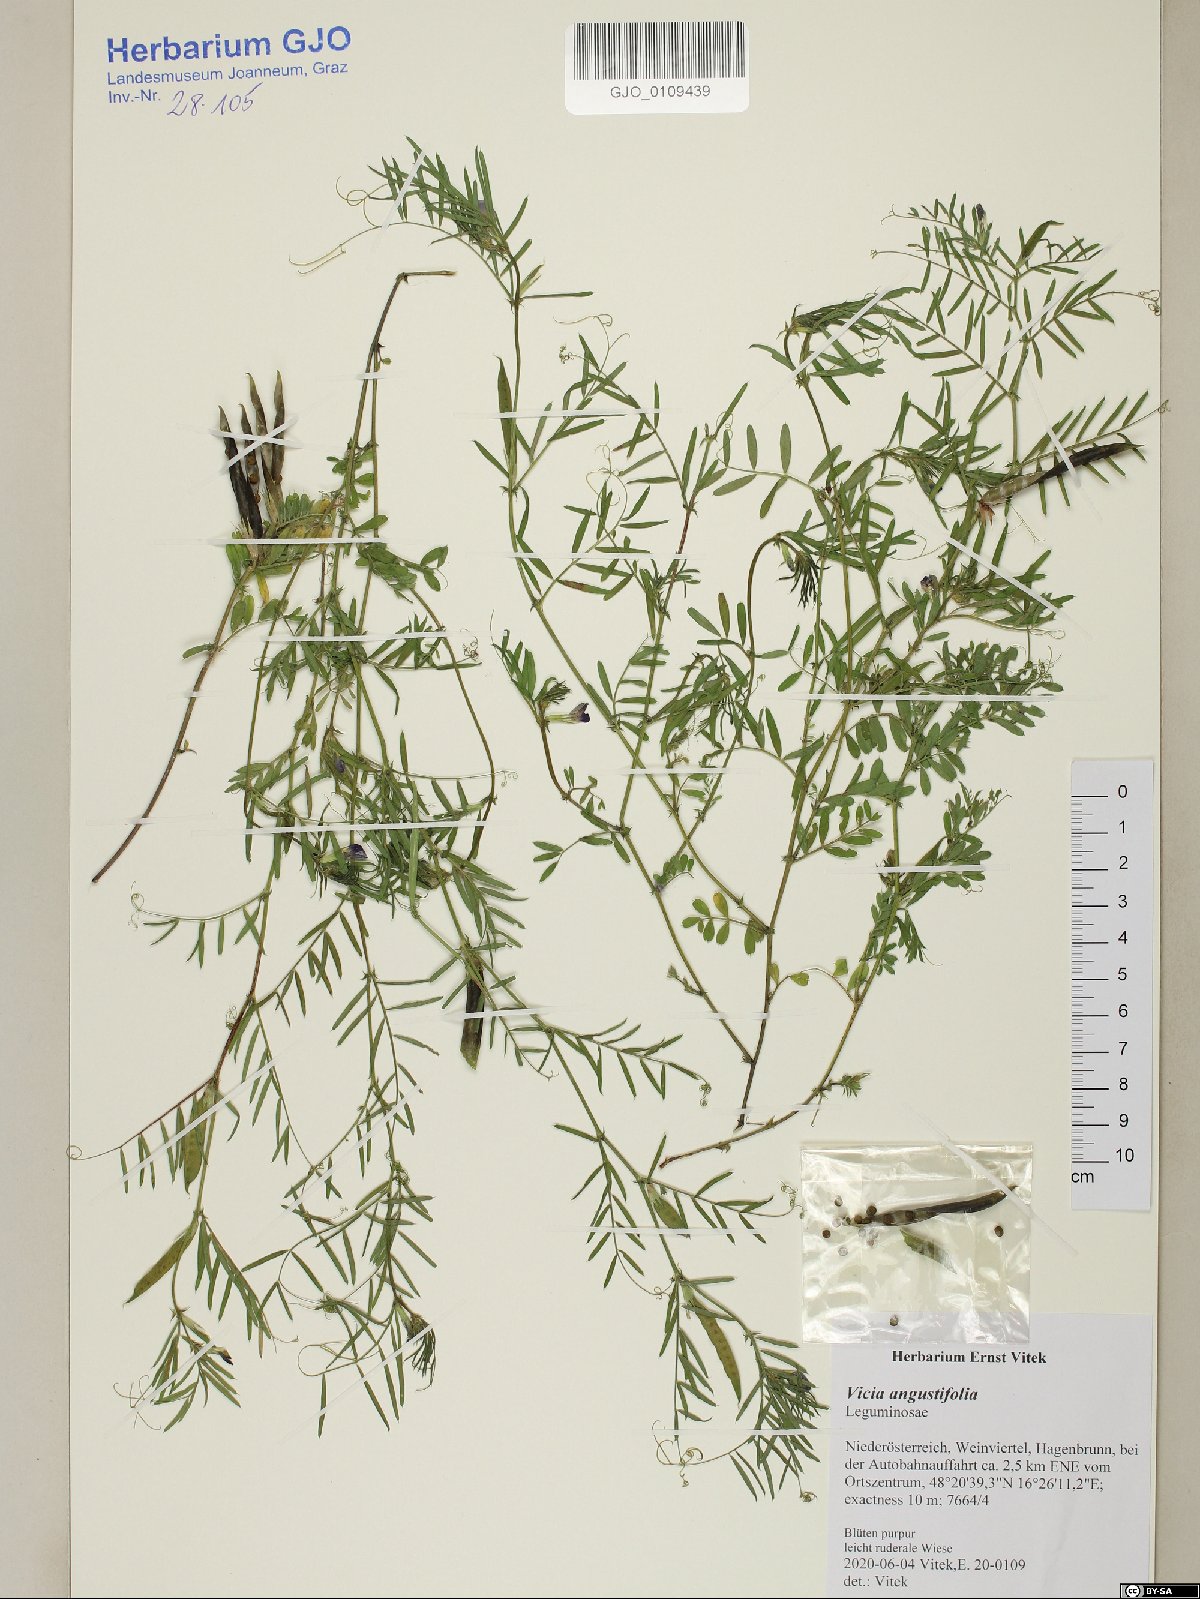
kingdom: Plantae
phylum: Tracheophyta
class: Magnoliopsida
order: Fabales
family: Fabaceae
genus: Vicia
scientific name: Vicia sativa
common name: Garden vetch
